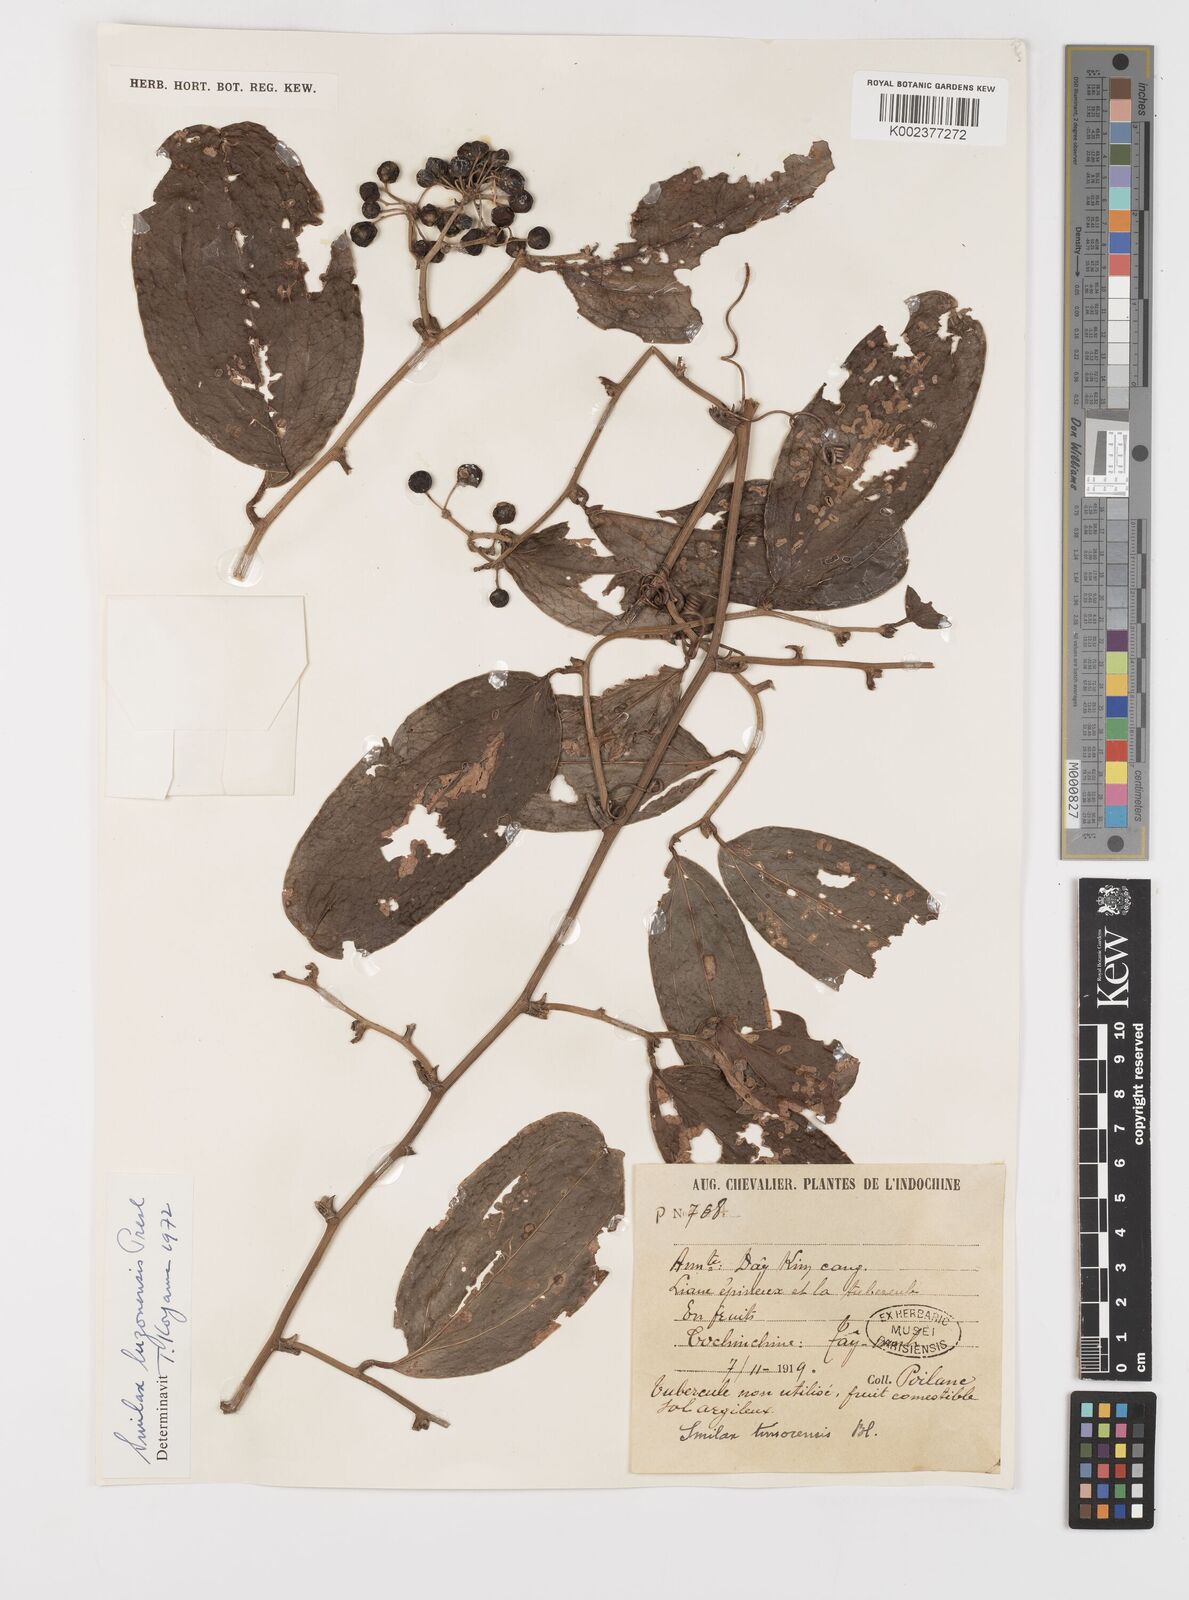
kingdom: Plantae
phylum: Tracheophyta
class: Liliopsida
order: Liliales
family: Smilacaceae
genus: Smilax
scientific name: Smilax luzonensis
